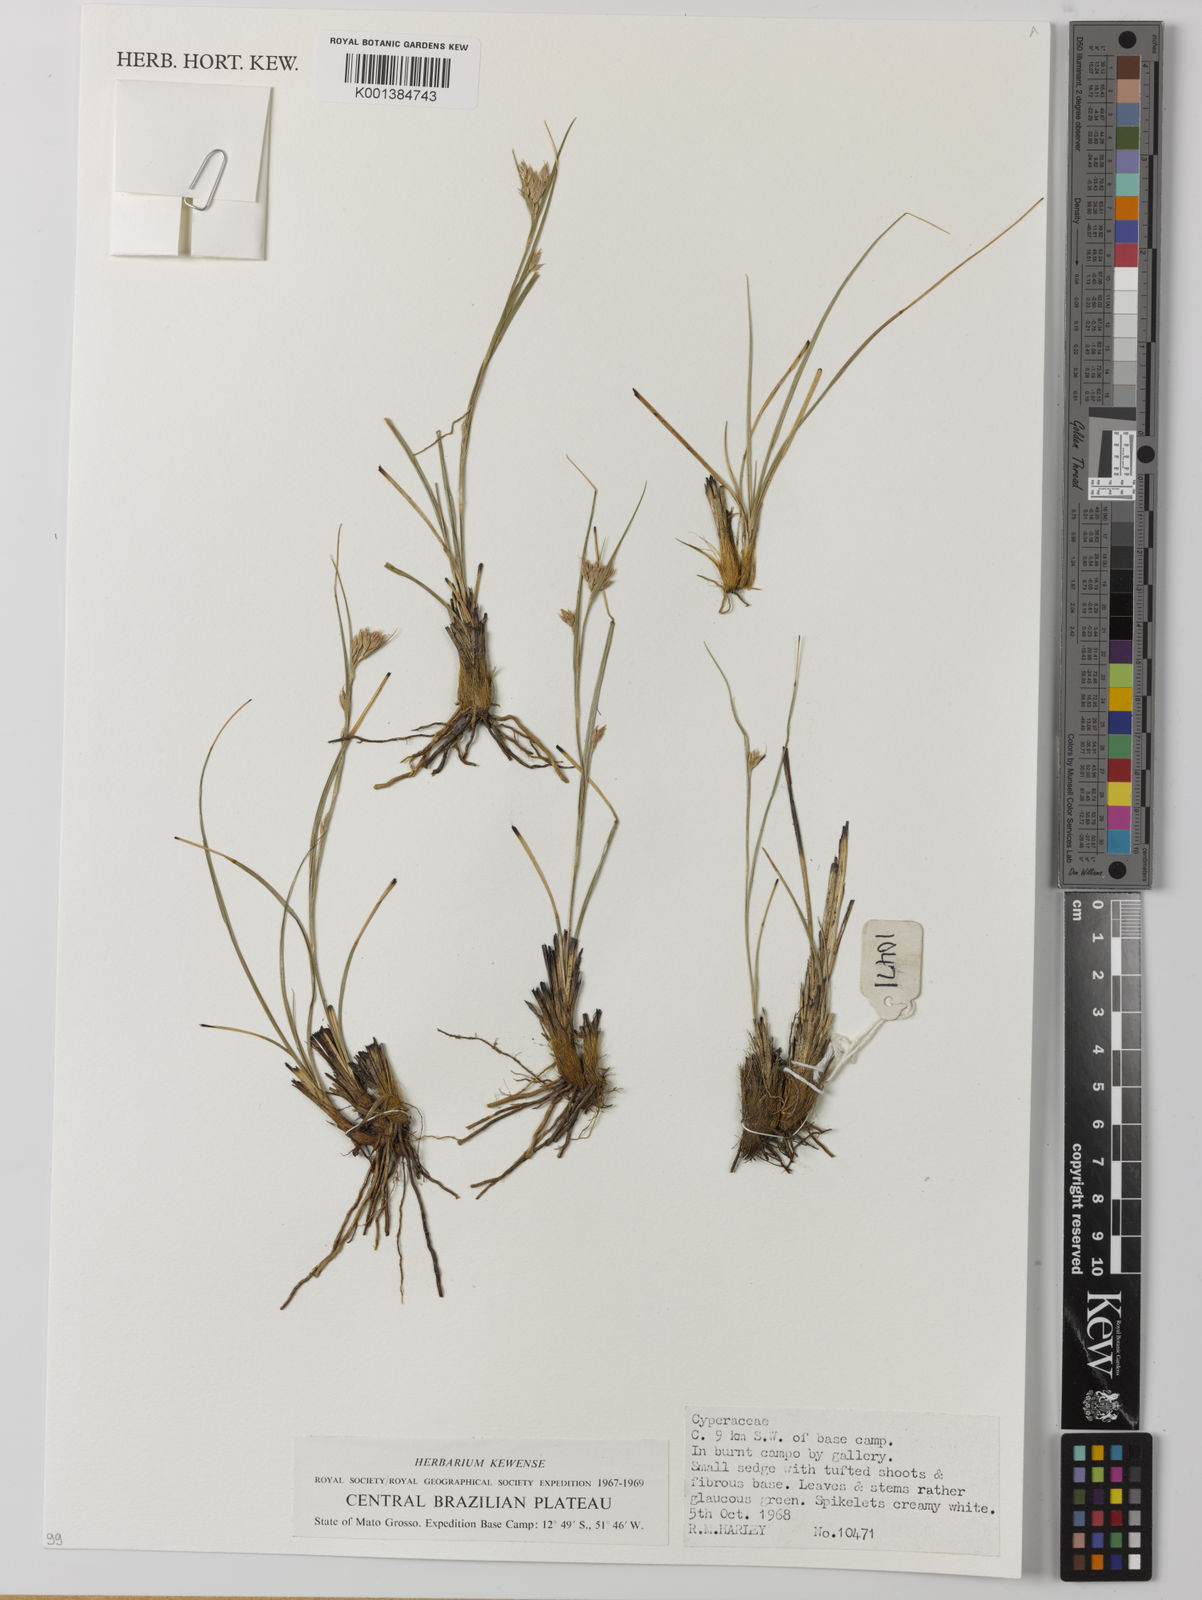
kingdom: Plantae
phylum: Tracheophyta
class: Liliopsida
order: Poales
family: Cyperaceae
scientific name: Cyperaceae
